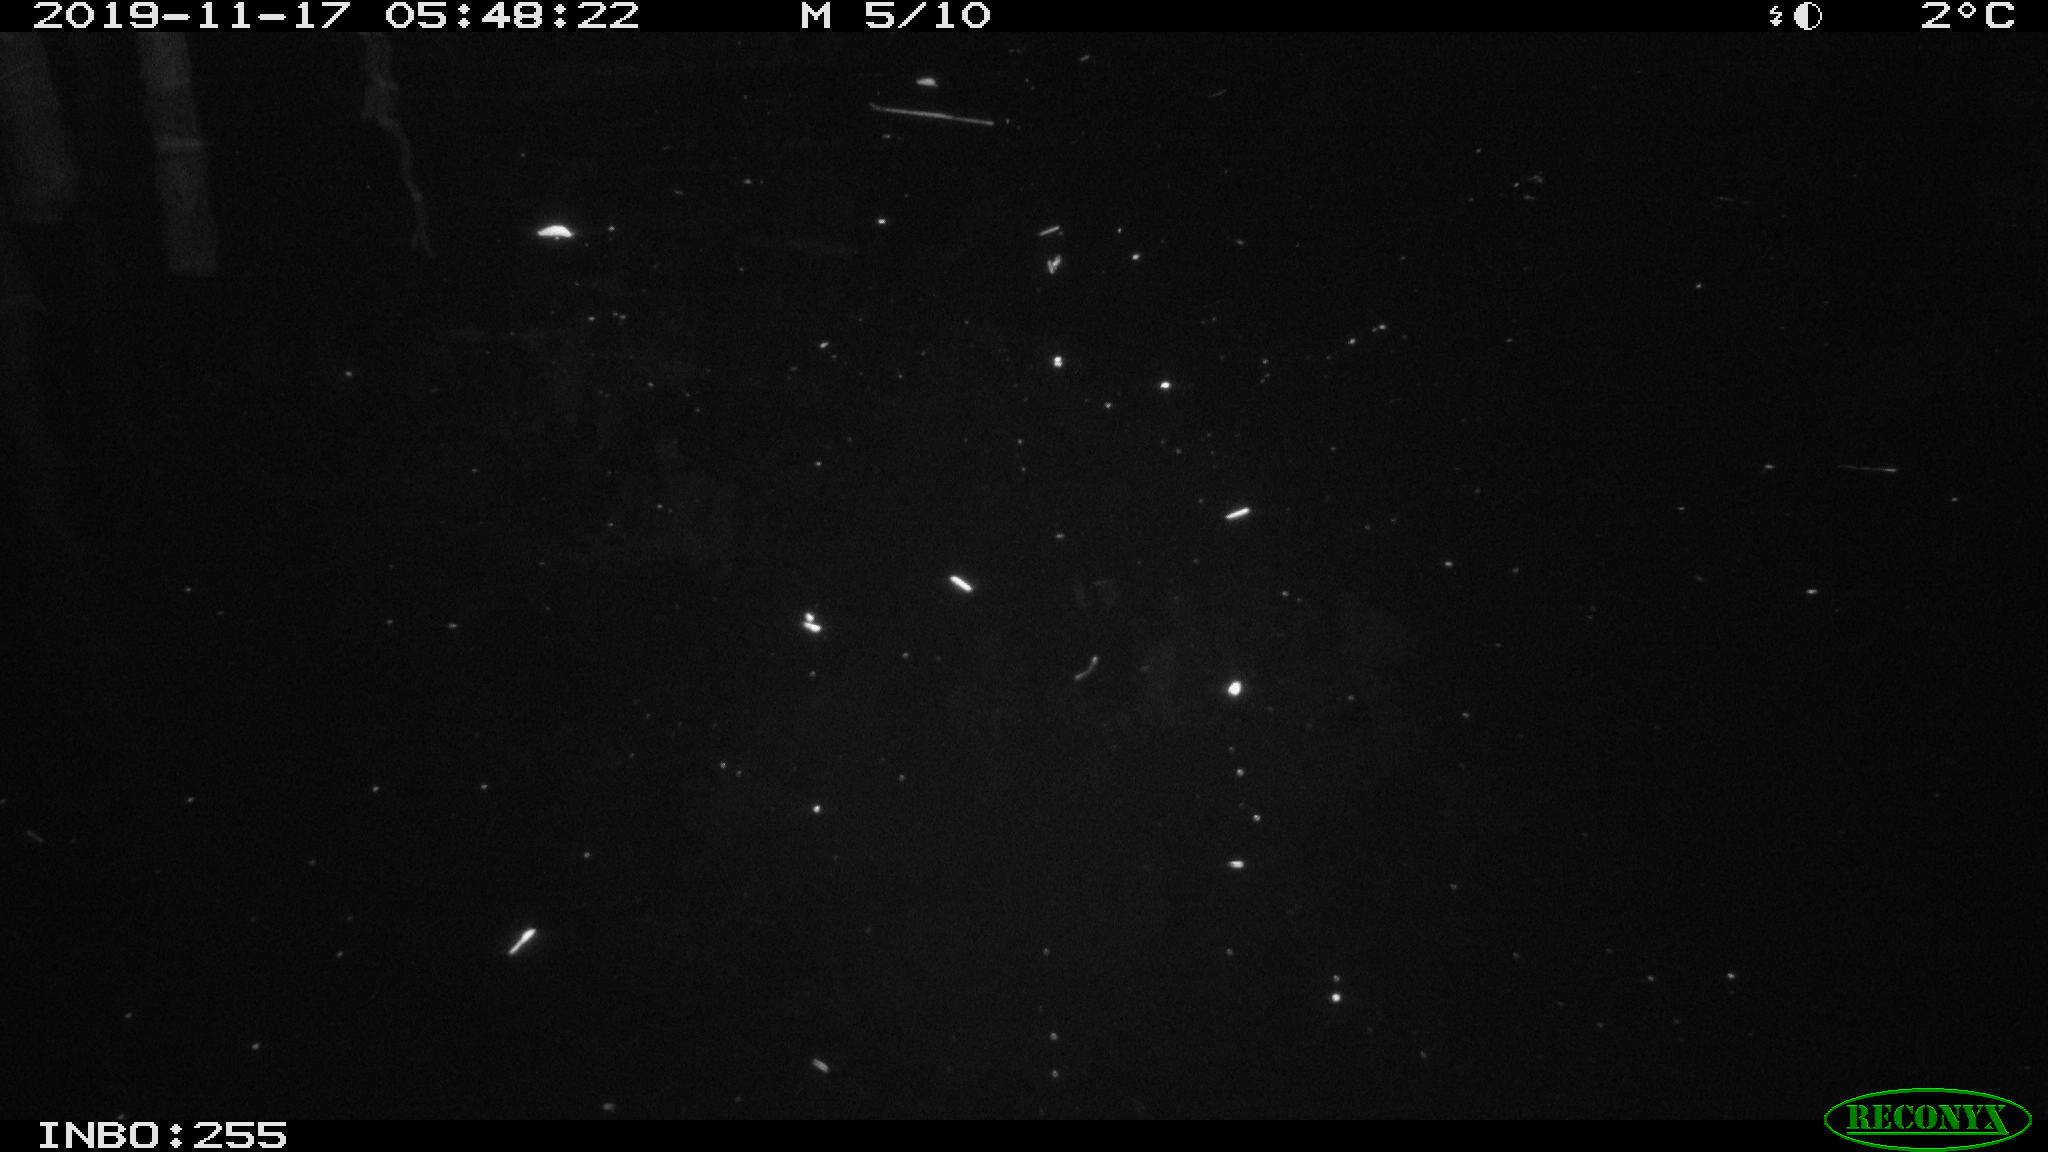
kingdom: Animalia
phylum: Chordata
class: Aves
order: Anseriformes
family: Anatidae
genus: Anas
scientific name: Anas platyrhynchos
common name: Mallard
